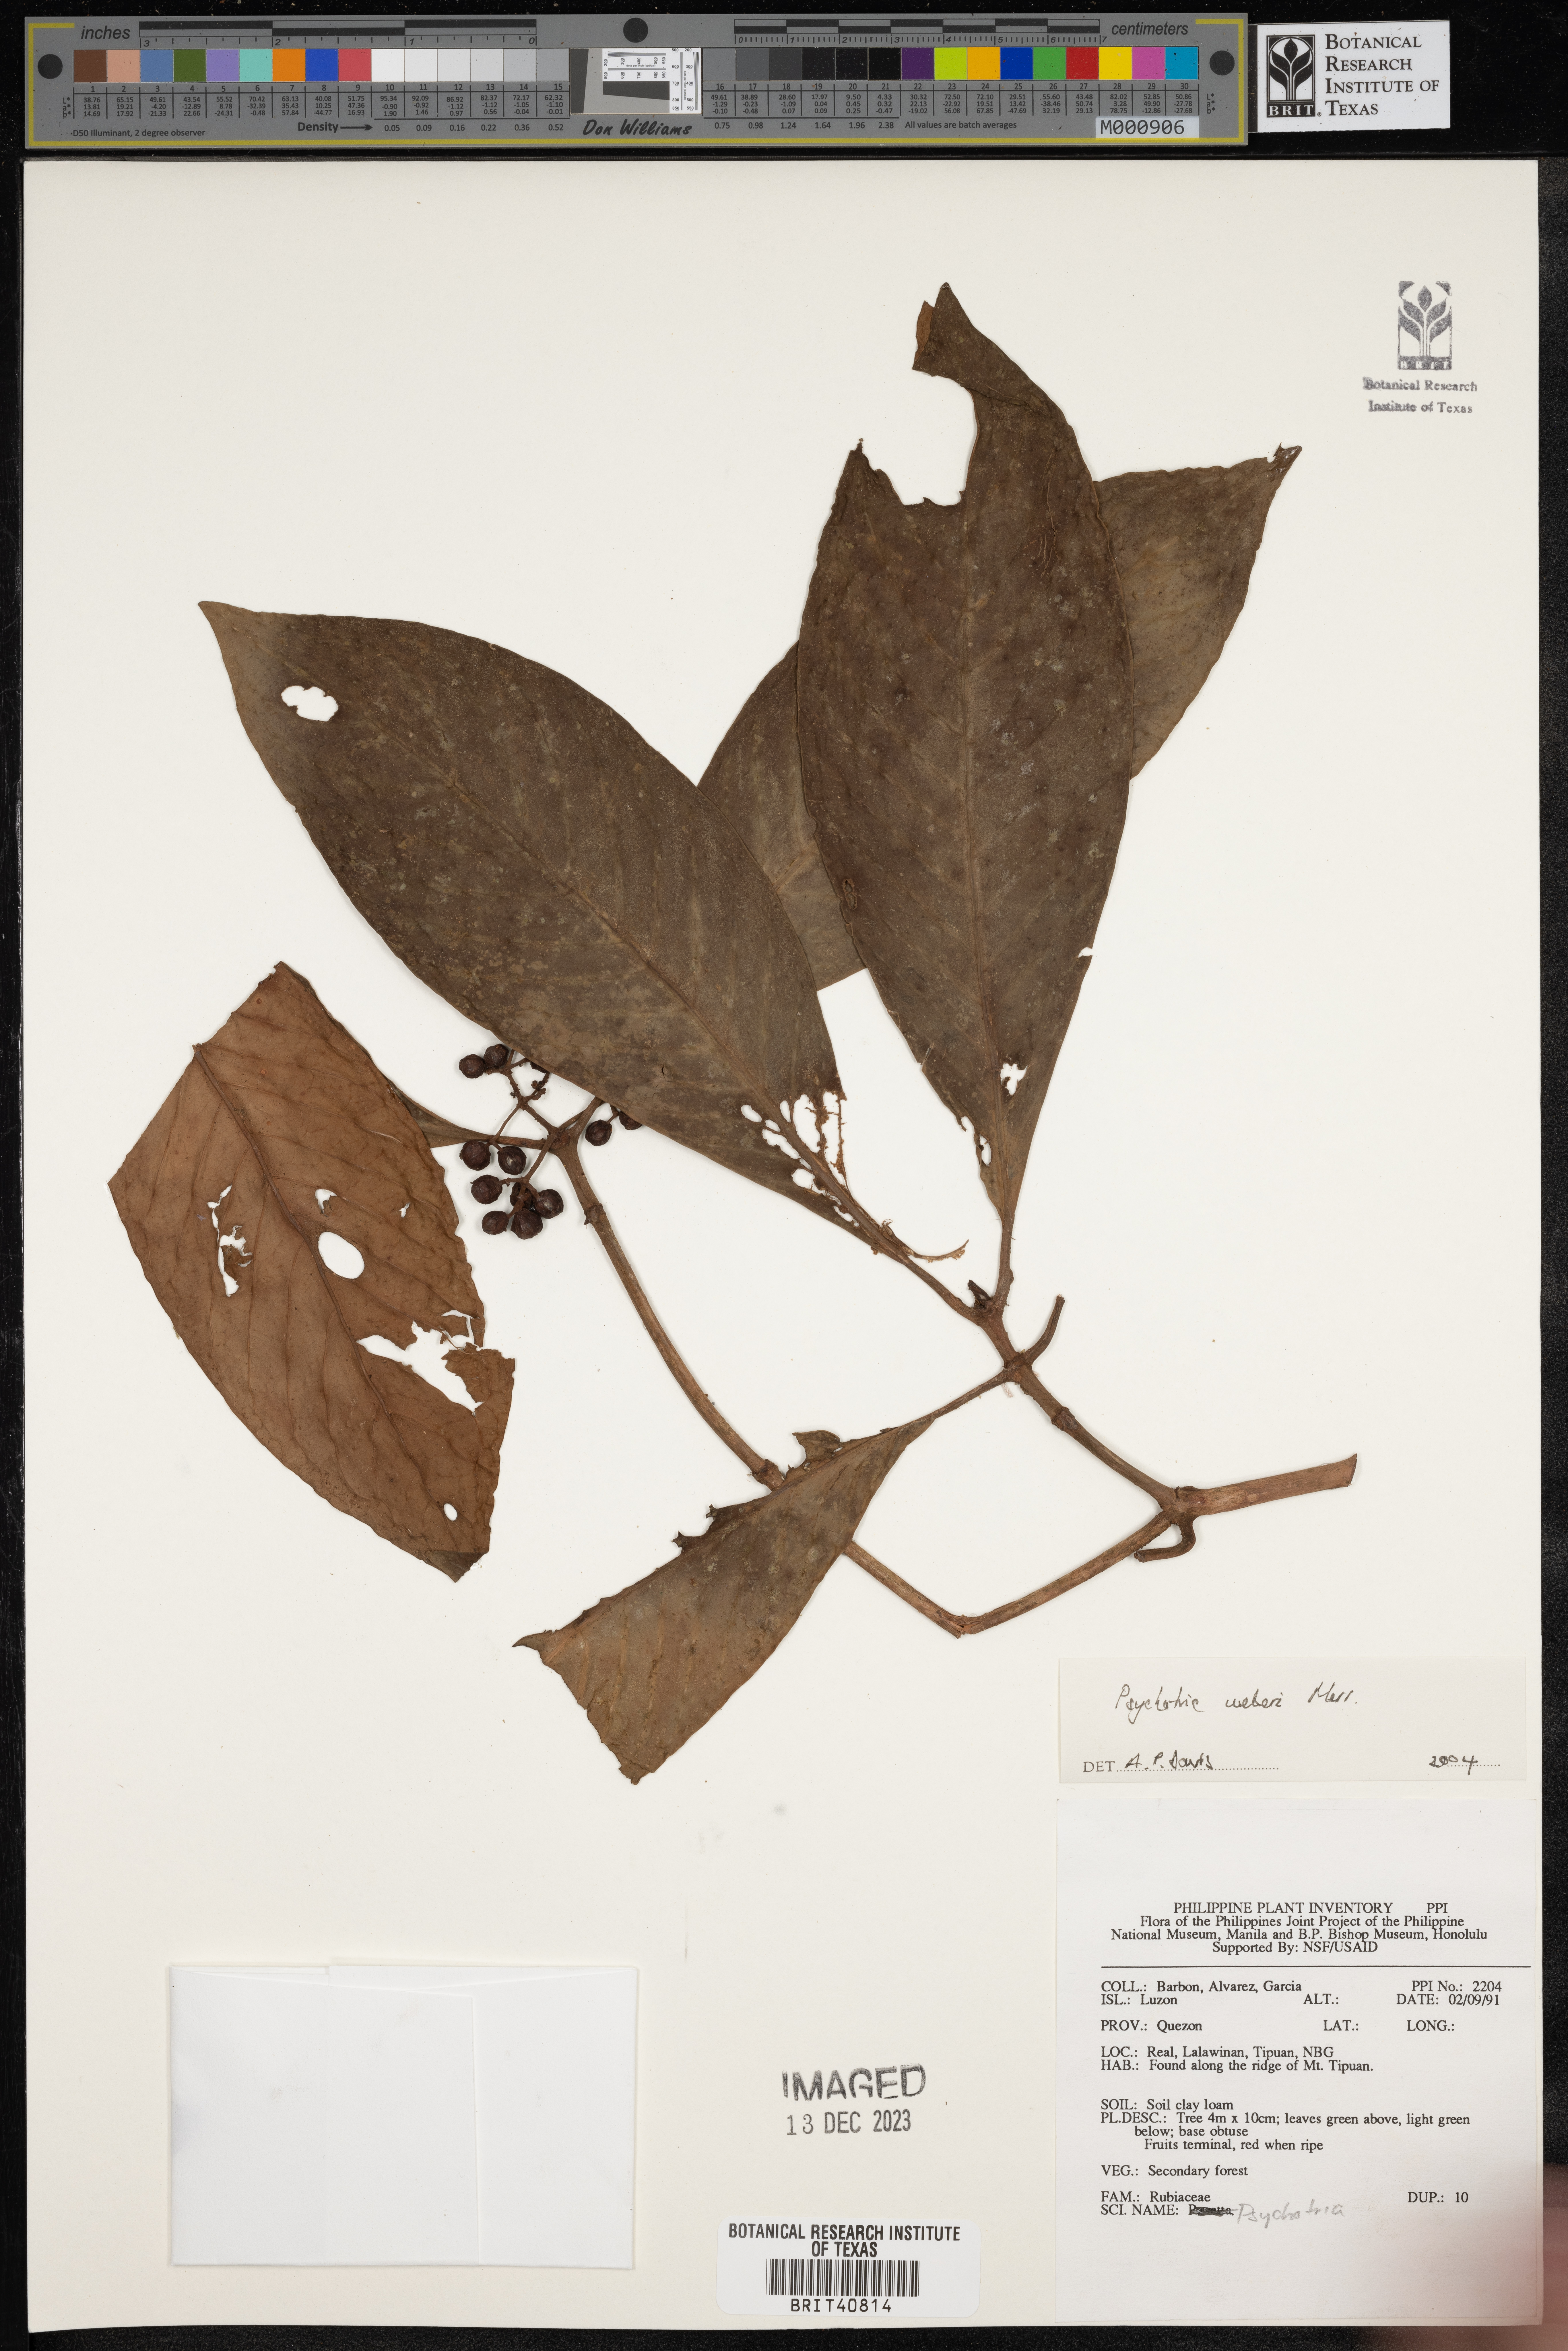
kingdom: Plantae
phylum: Tracheophyta
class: Magnoliopsida
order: Gentianales
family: Rubiaceae
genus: Psychotria
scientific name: Psychotria weberi
